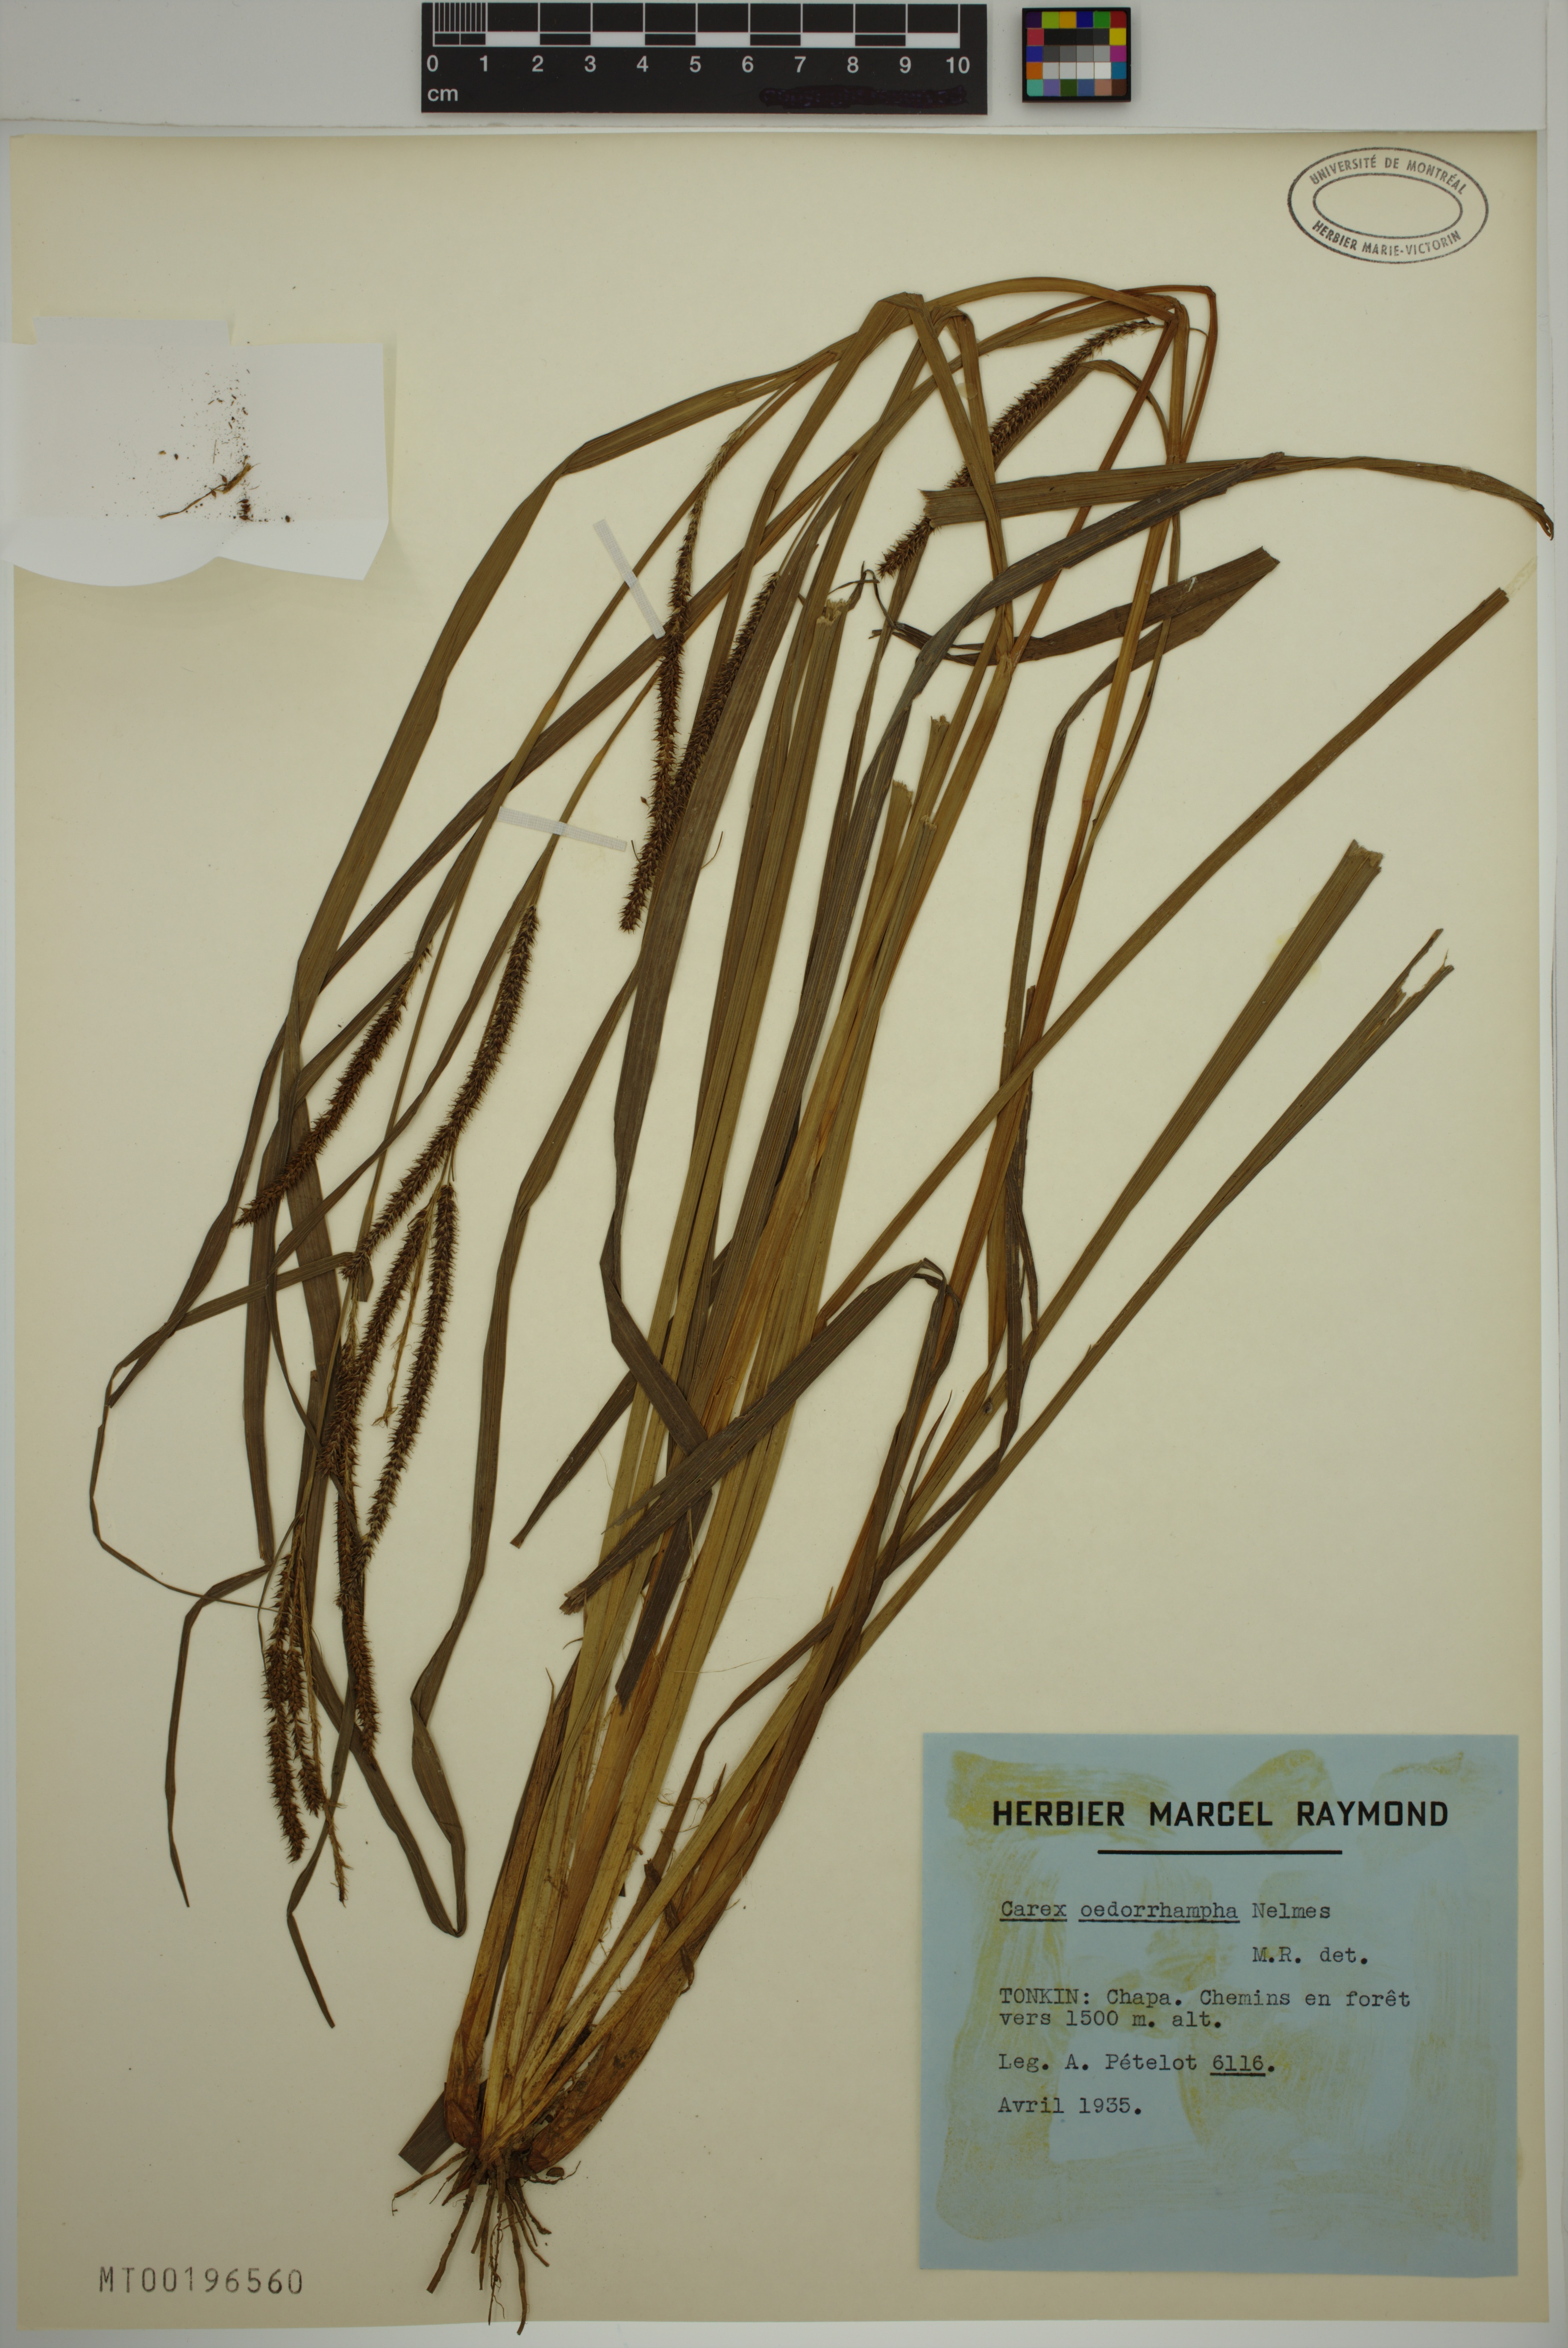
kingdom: Plantae
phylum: Tracheophyta
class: Liliopsida
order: Poales
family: Cyperaceae
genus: Carex
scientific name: Carex tumida
